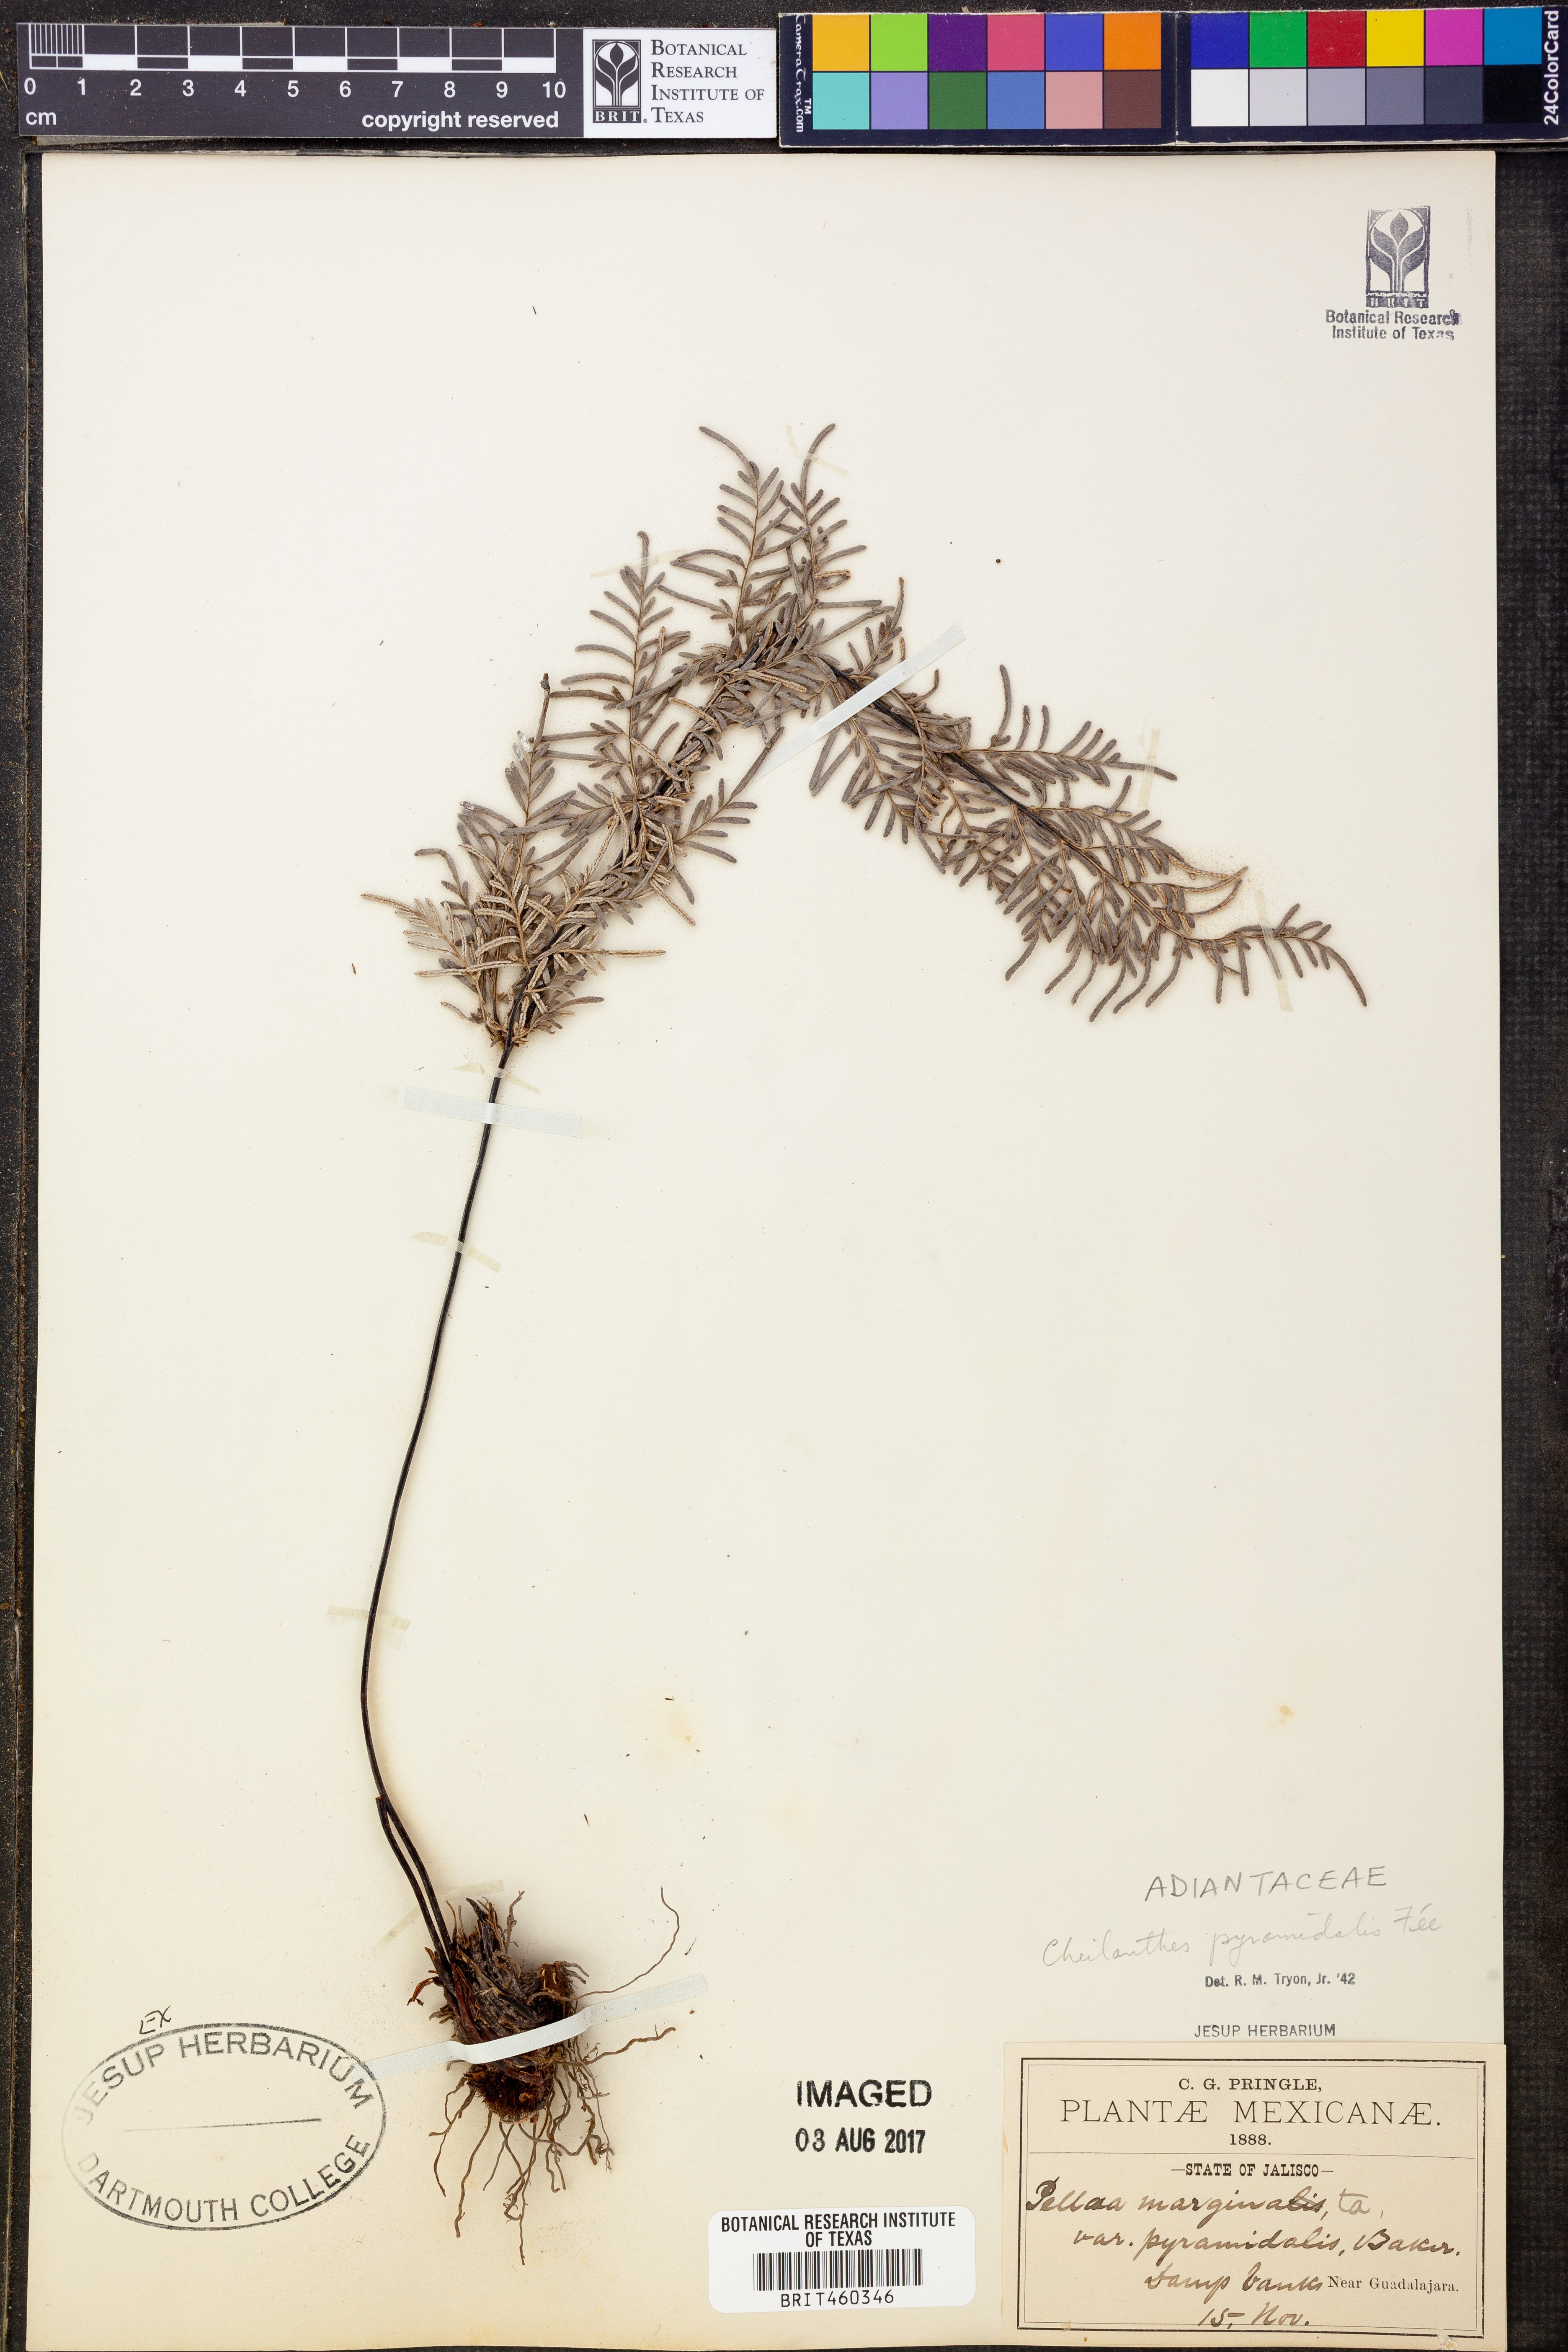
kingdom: Plantae
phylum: Tracheophyta
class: Polypodiopsida
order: Polypodiales
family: Pteridaceae
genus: Gaga
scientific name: Gaga hirsuta
